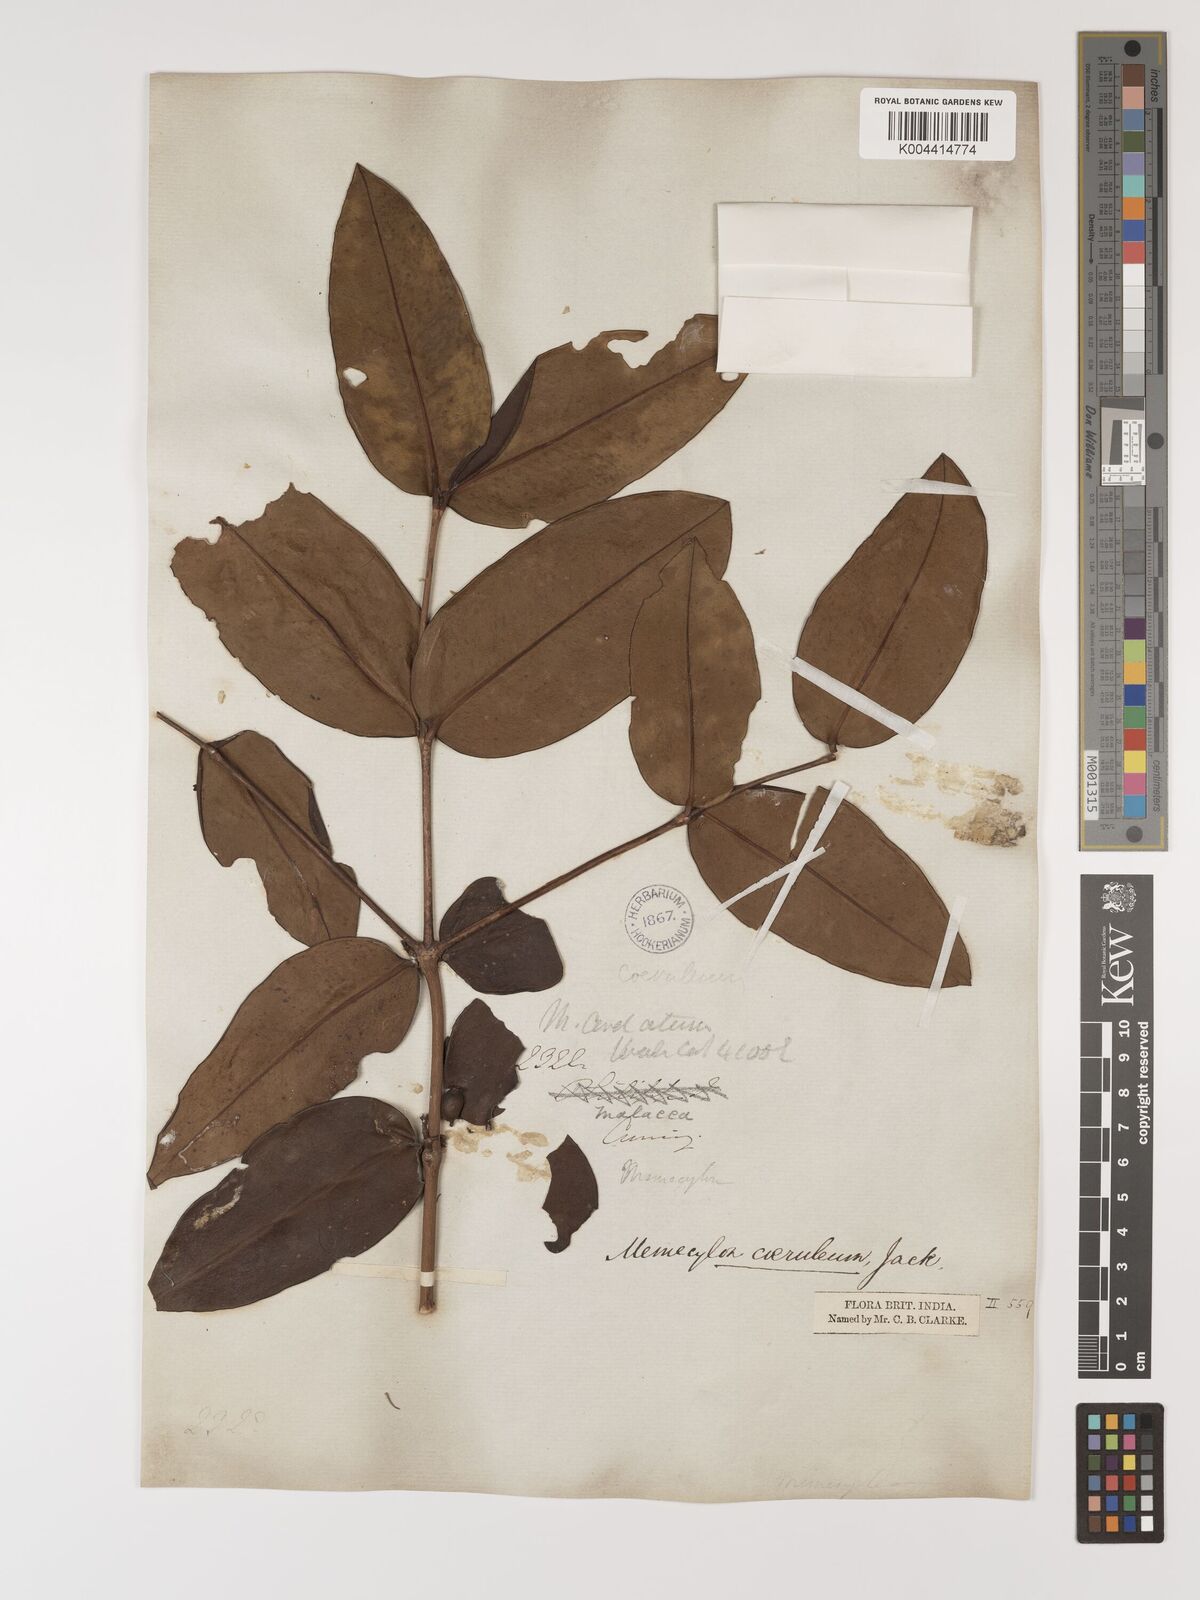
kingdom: Plantae
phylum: Tracheophyta
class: Magnoliopsida
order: Myrtales
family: Melastomataceae
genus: Memecylon
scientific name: Memecylon
